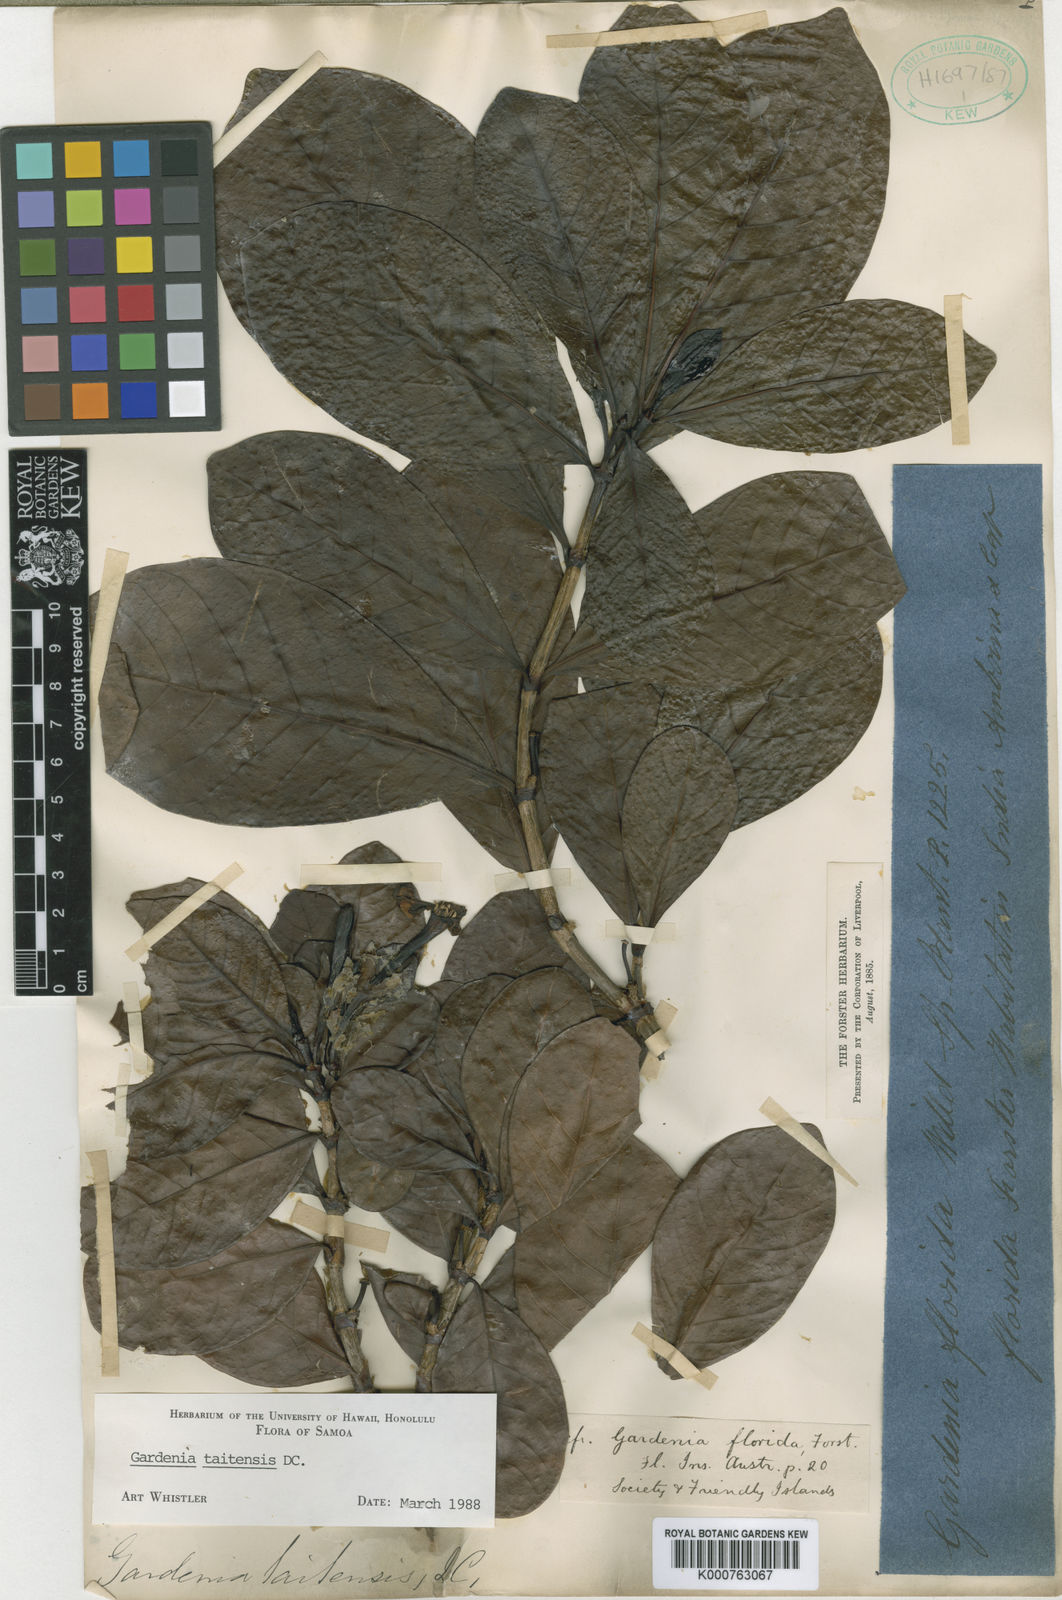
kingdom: Plantae
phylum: Tracheophyta
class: Magnoliopsida
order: Gentianales
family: Rubiaceae
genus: Gardenia
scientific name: Gardenia taitensis
